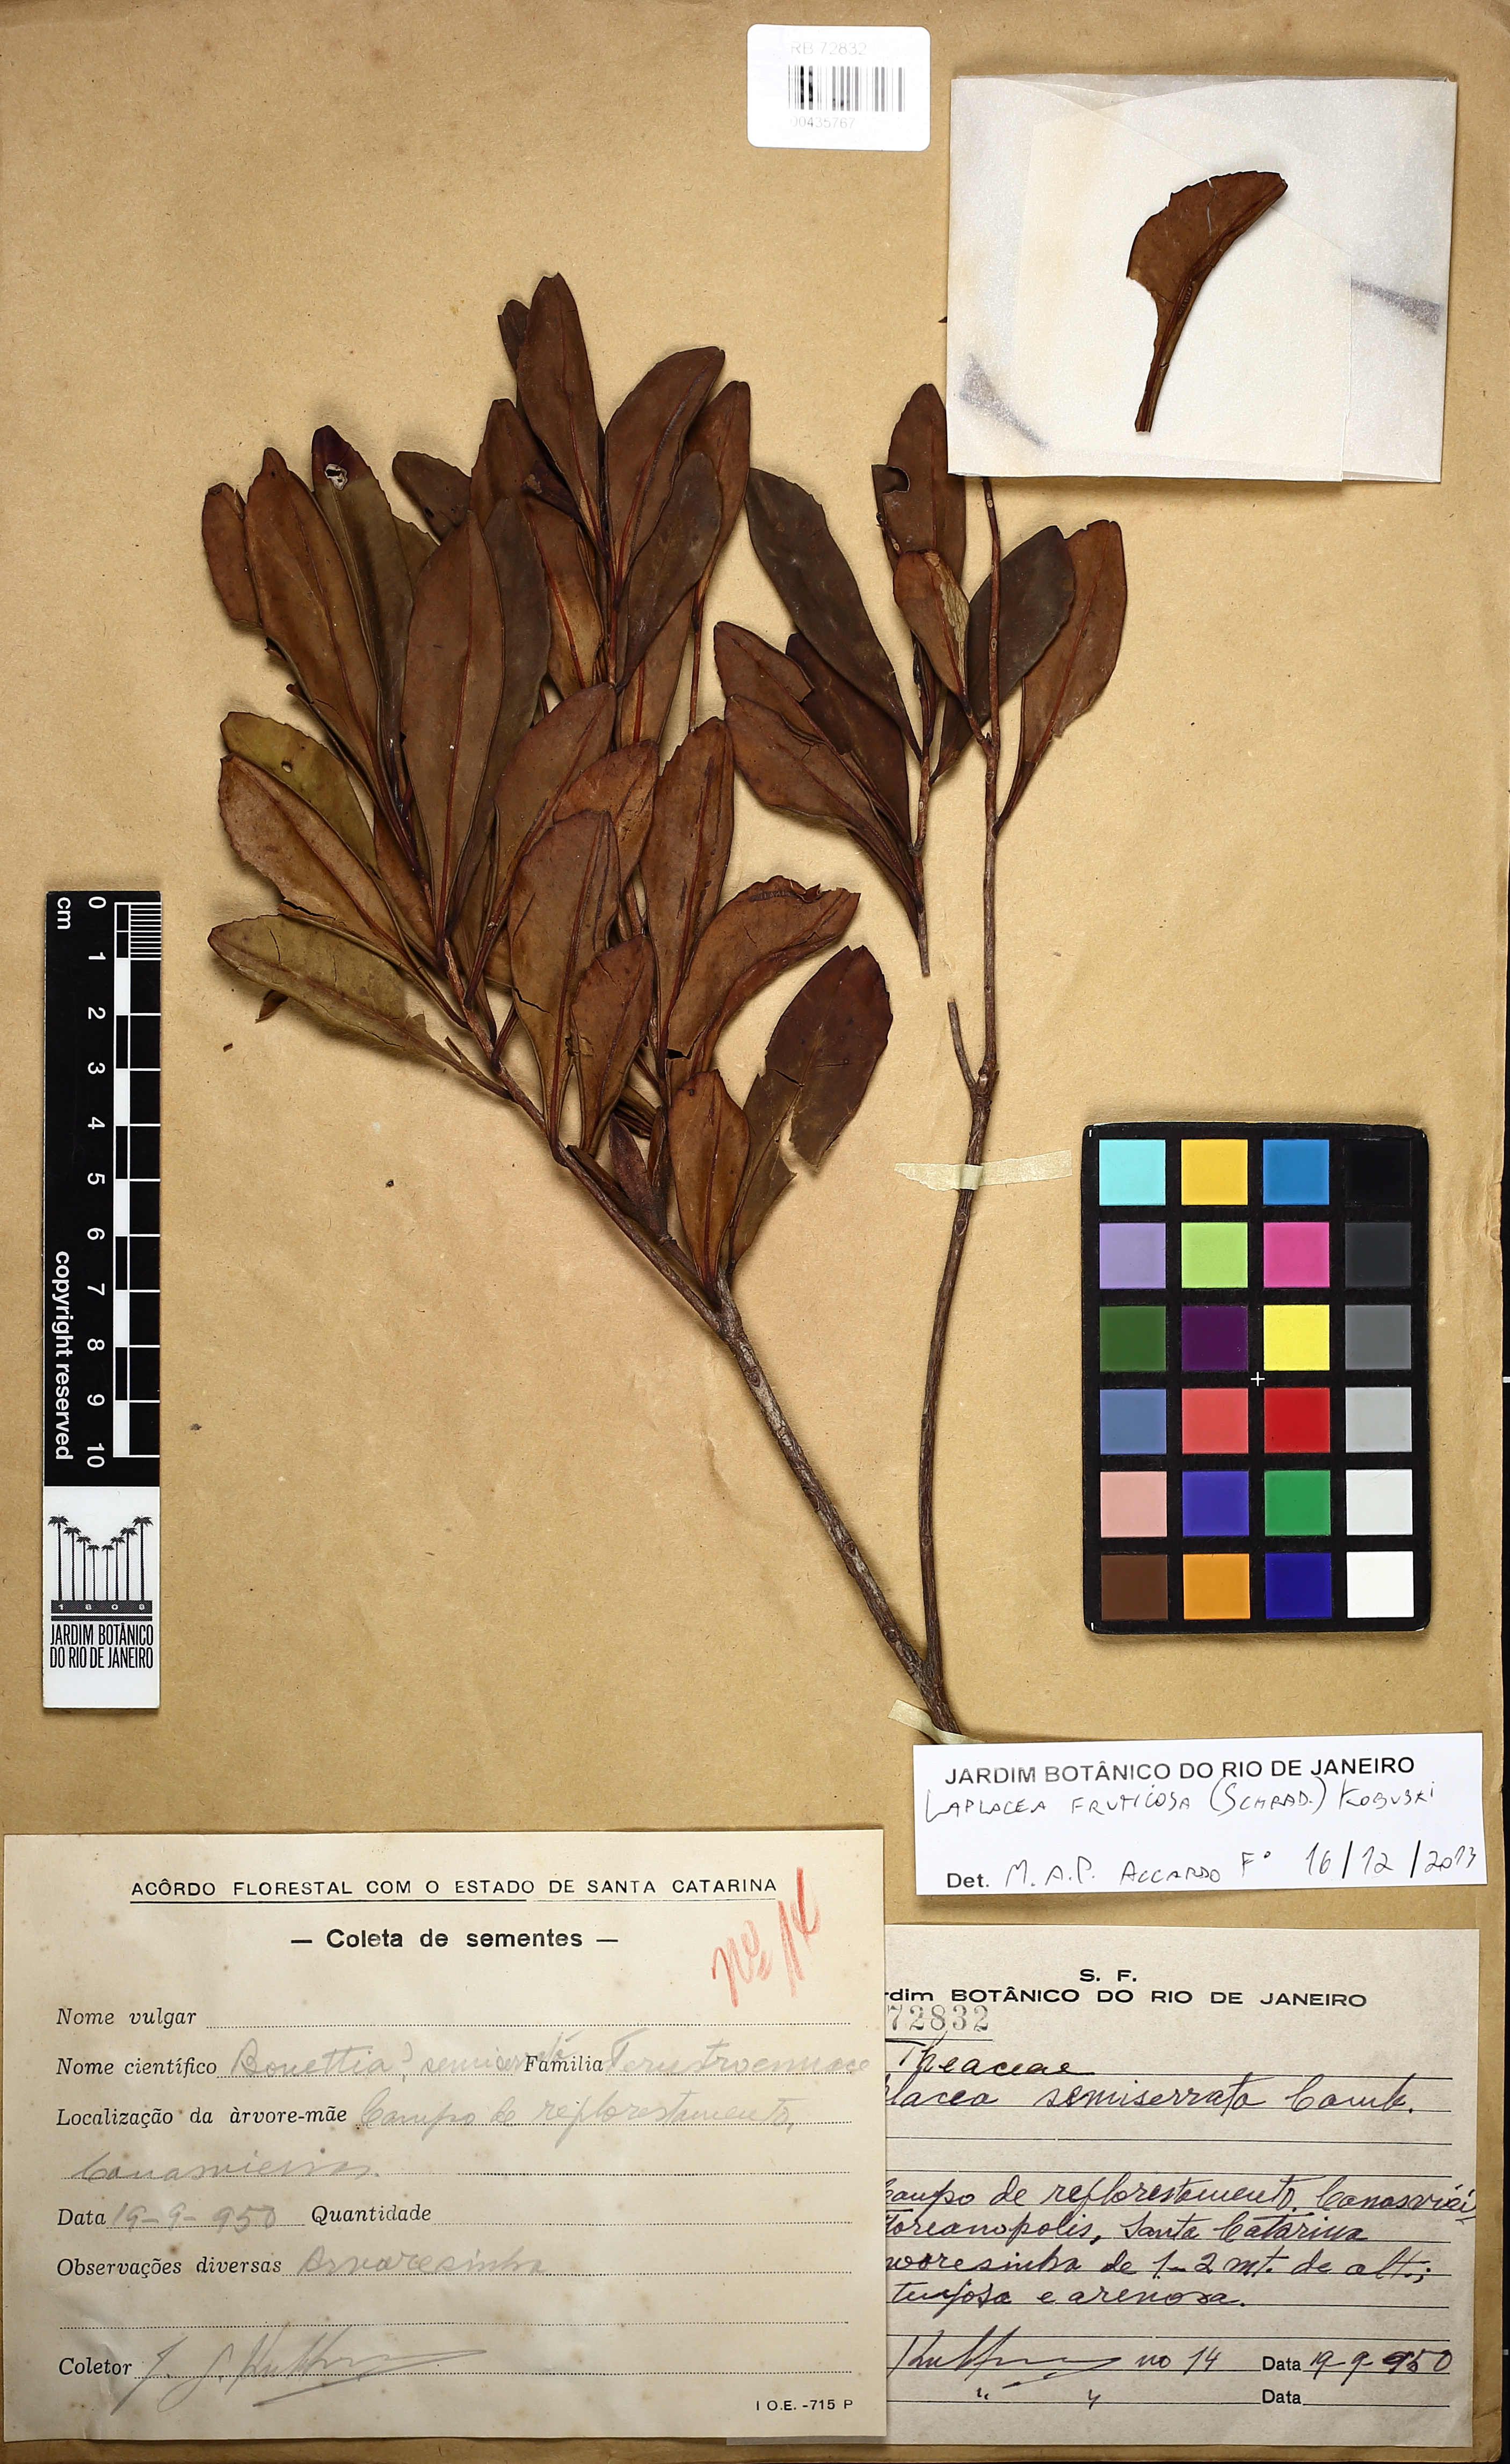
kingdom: Plantae
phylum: Tracheophyta
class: Magnoliopsida
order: Ericales
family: Theaceae
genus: Gordonia
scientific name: Gordonia fruticosa
